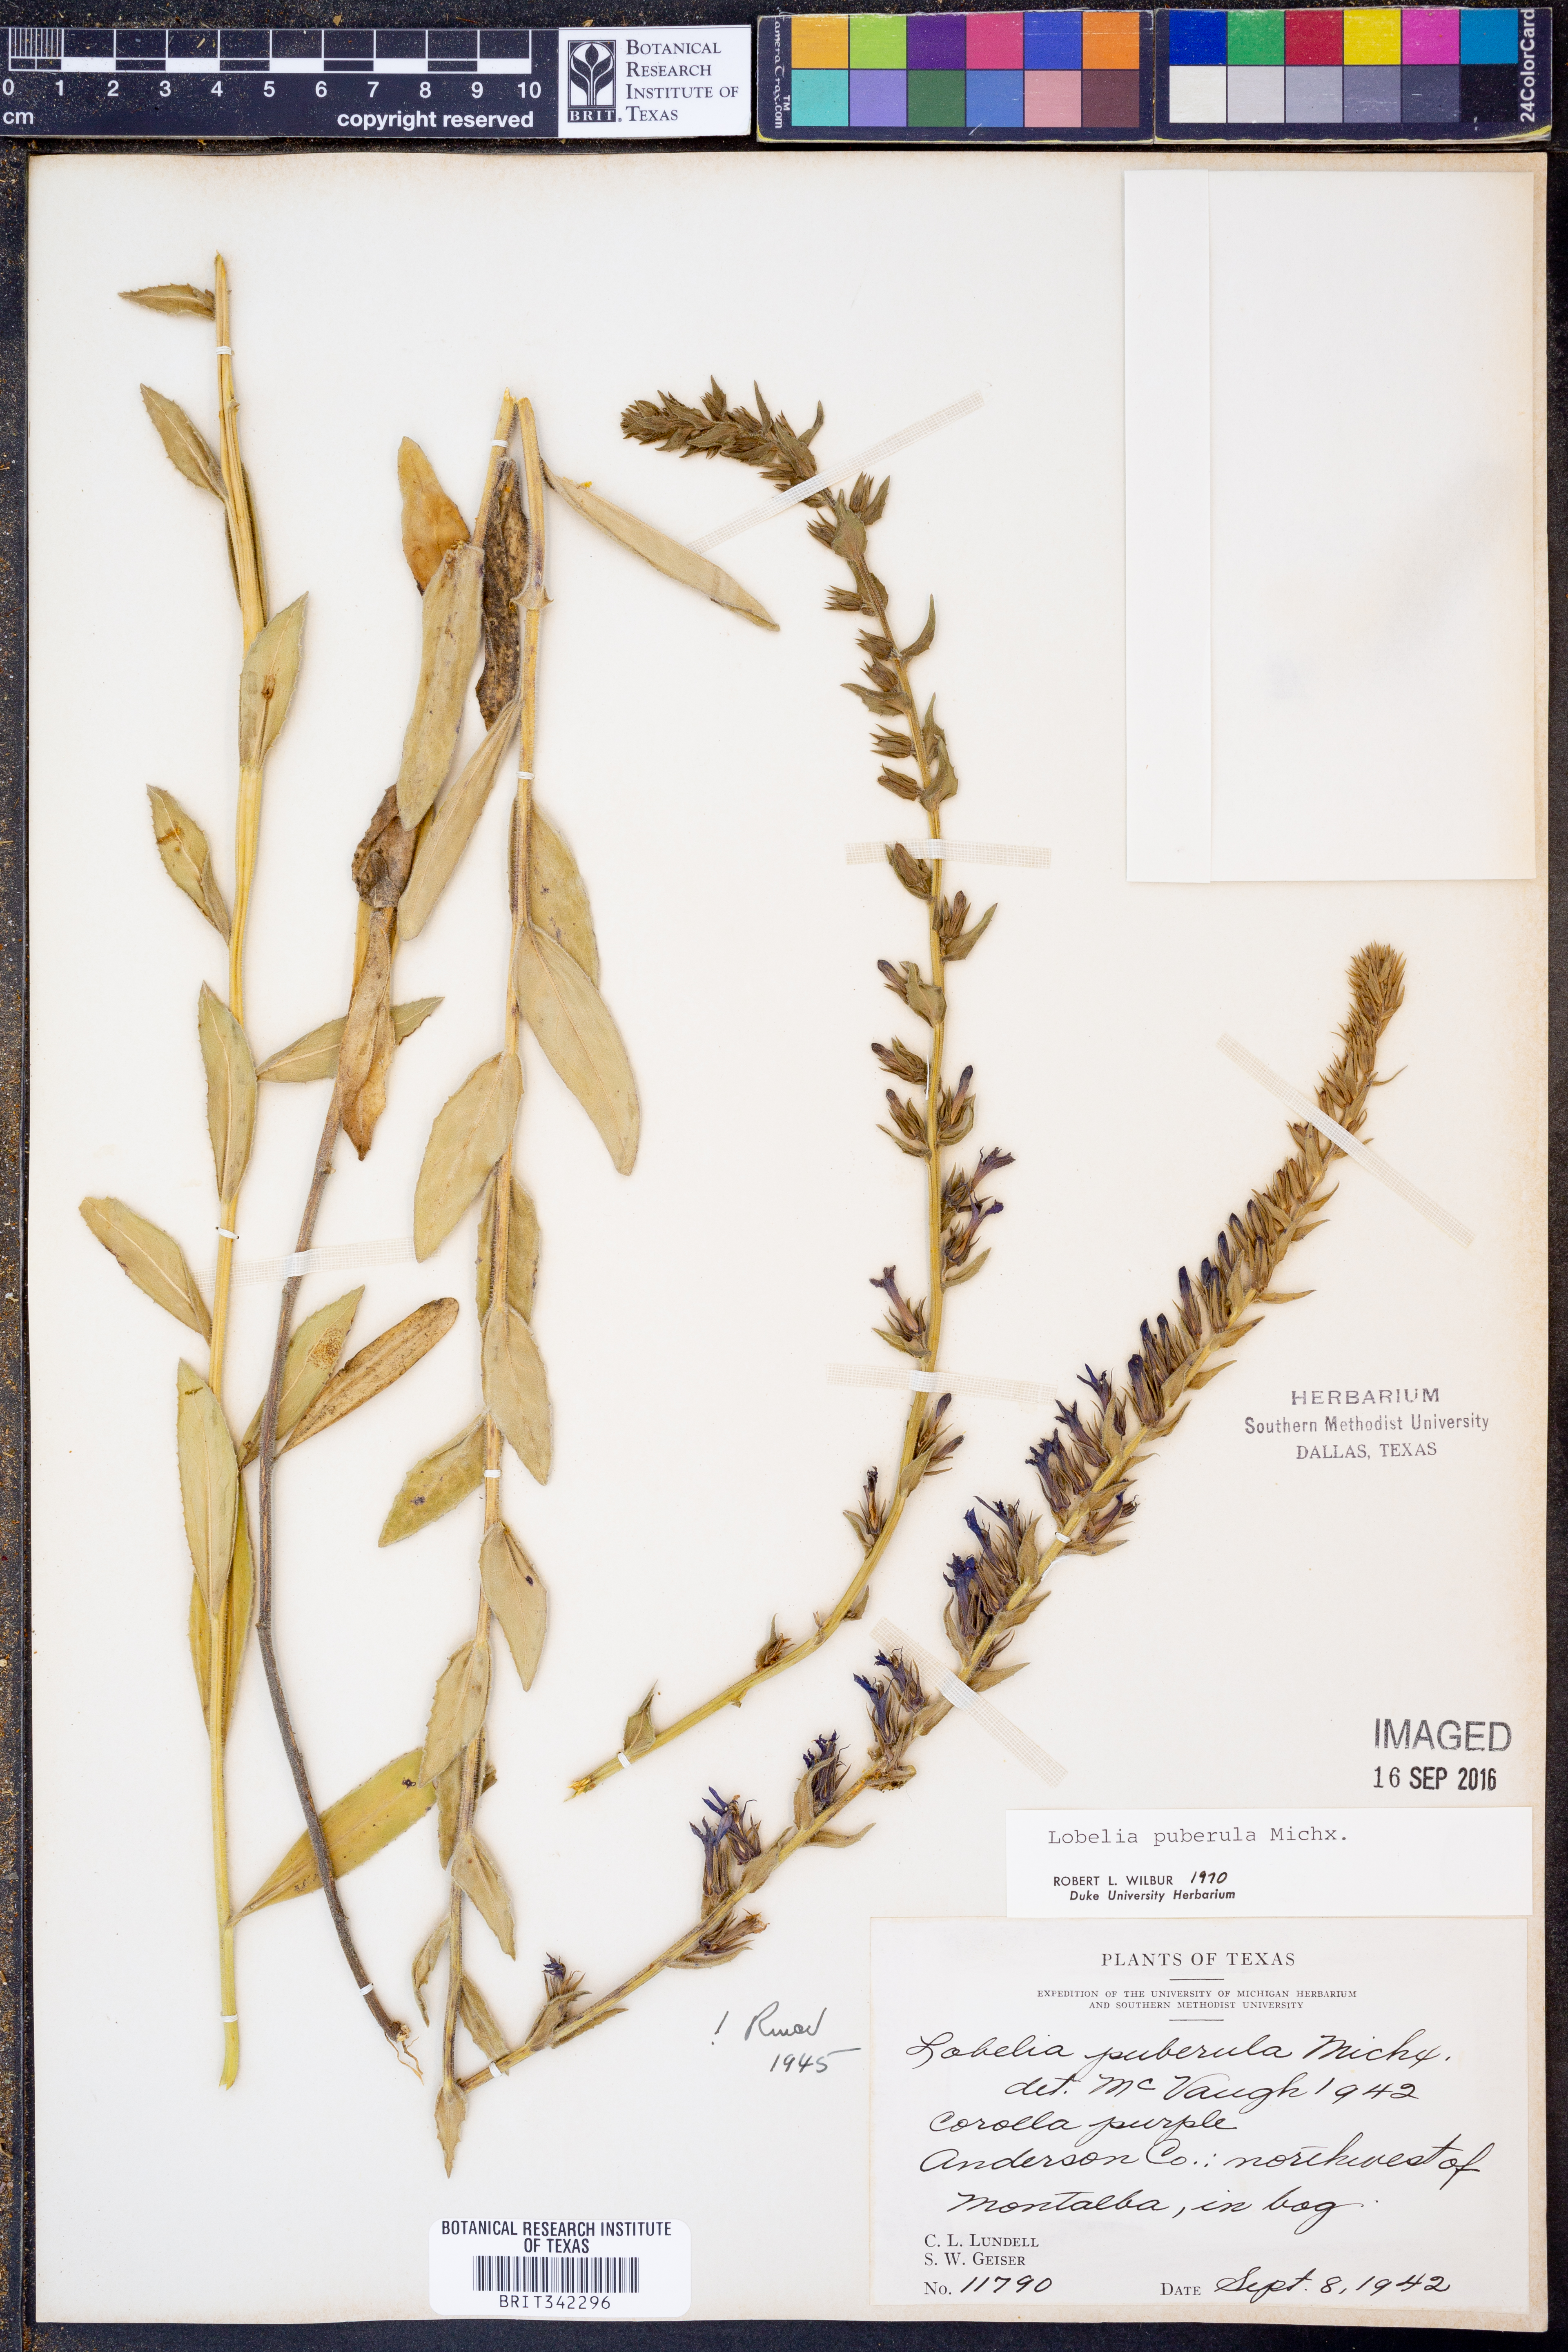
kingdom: Plantae
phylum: Tracheophyta
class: Magnoliopsida
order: Asterales
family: Campanulaceae
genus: Lobelia
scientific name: Lobelia puberula
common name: Purple dewdrop
